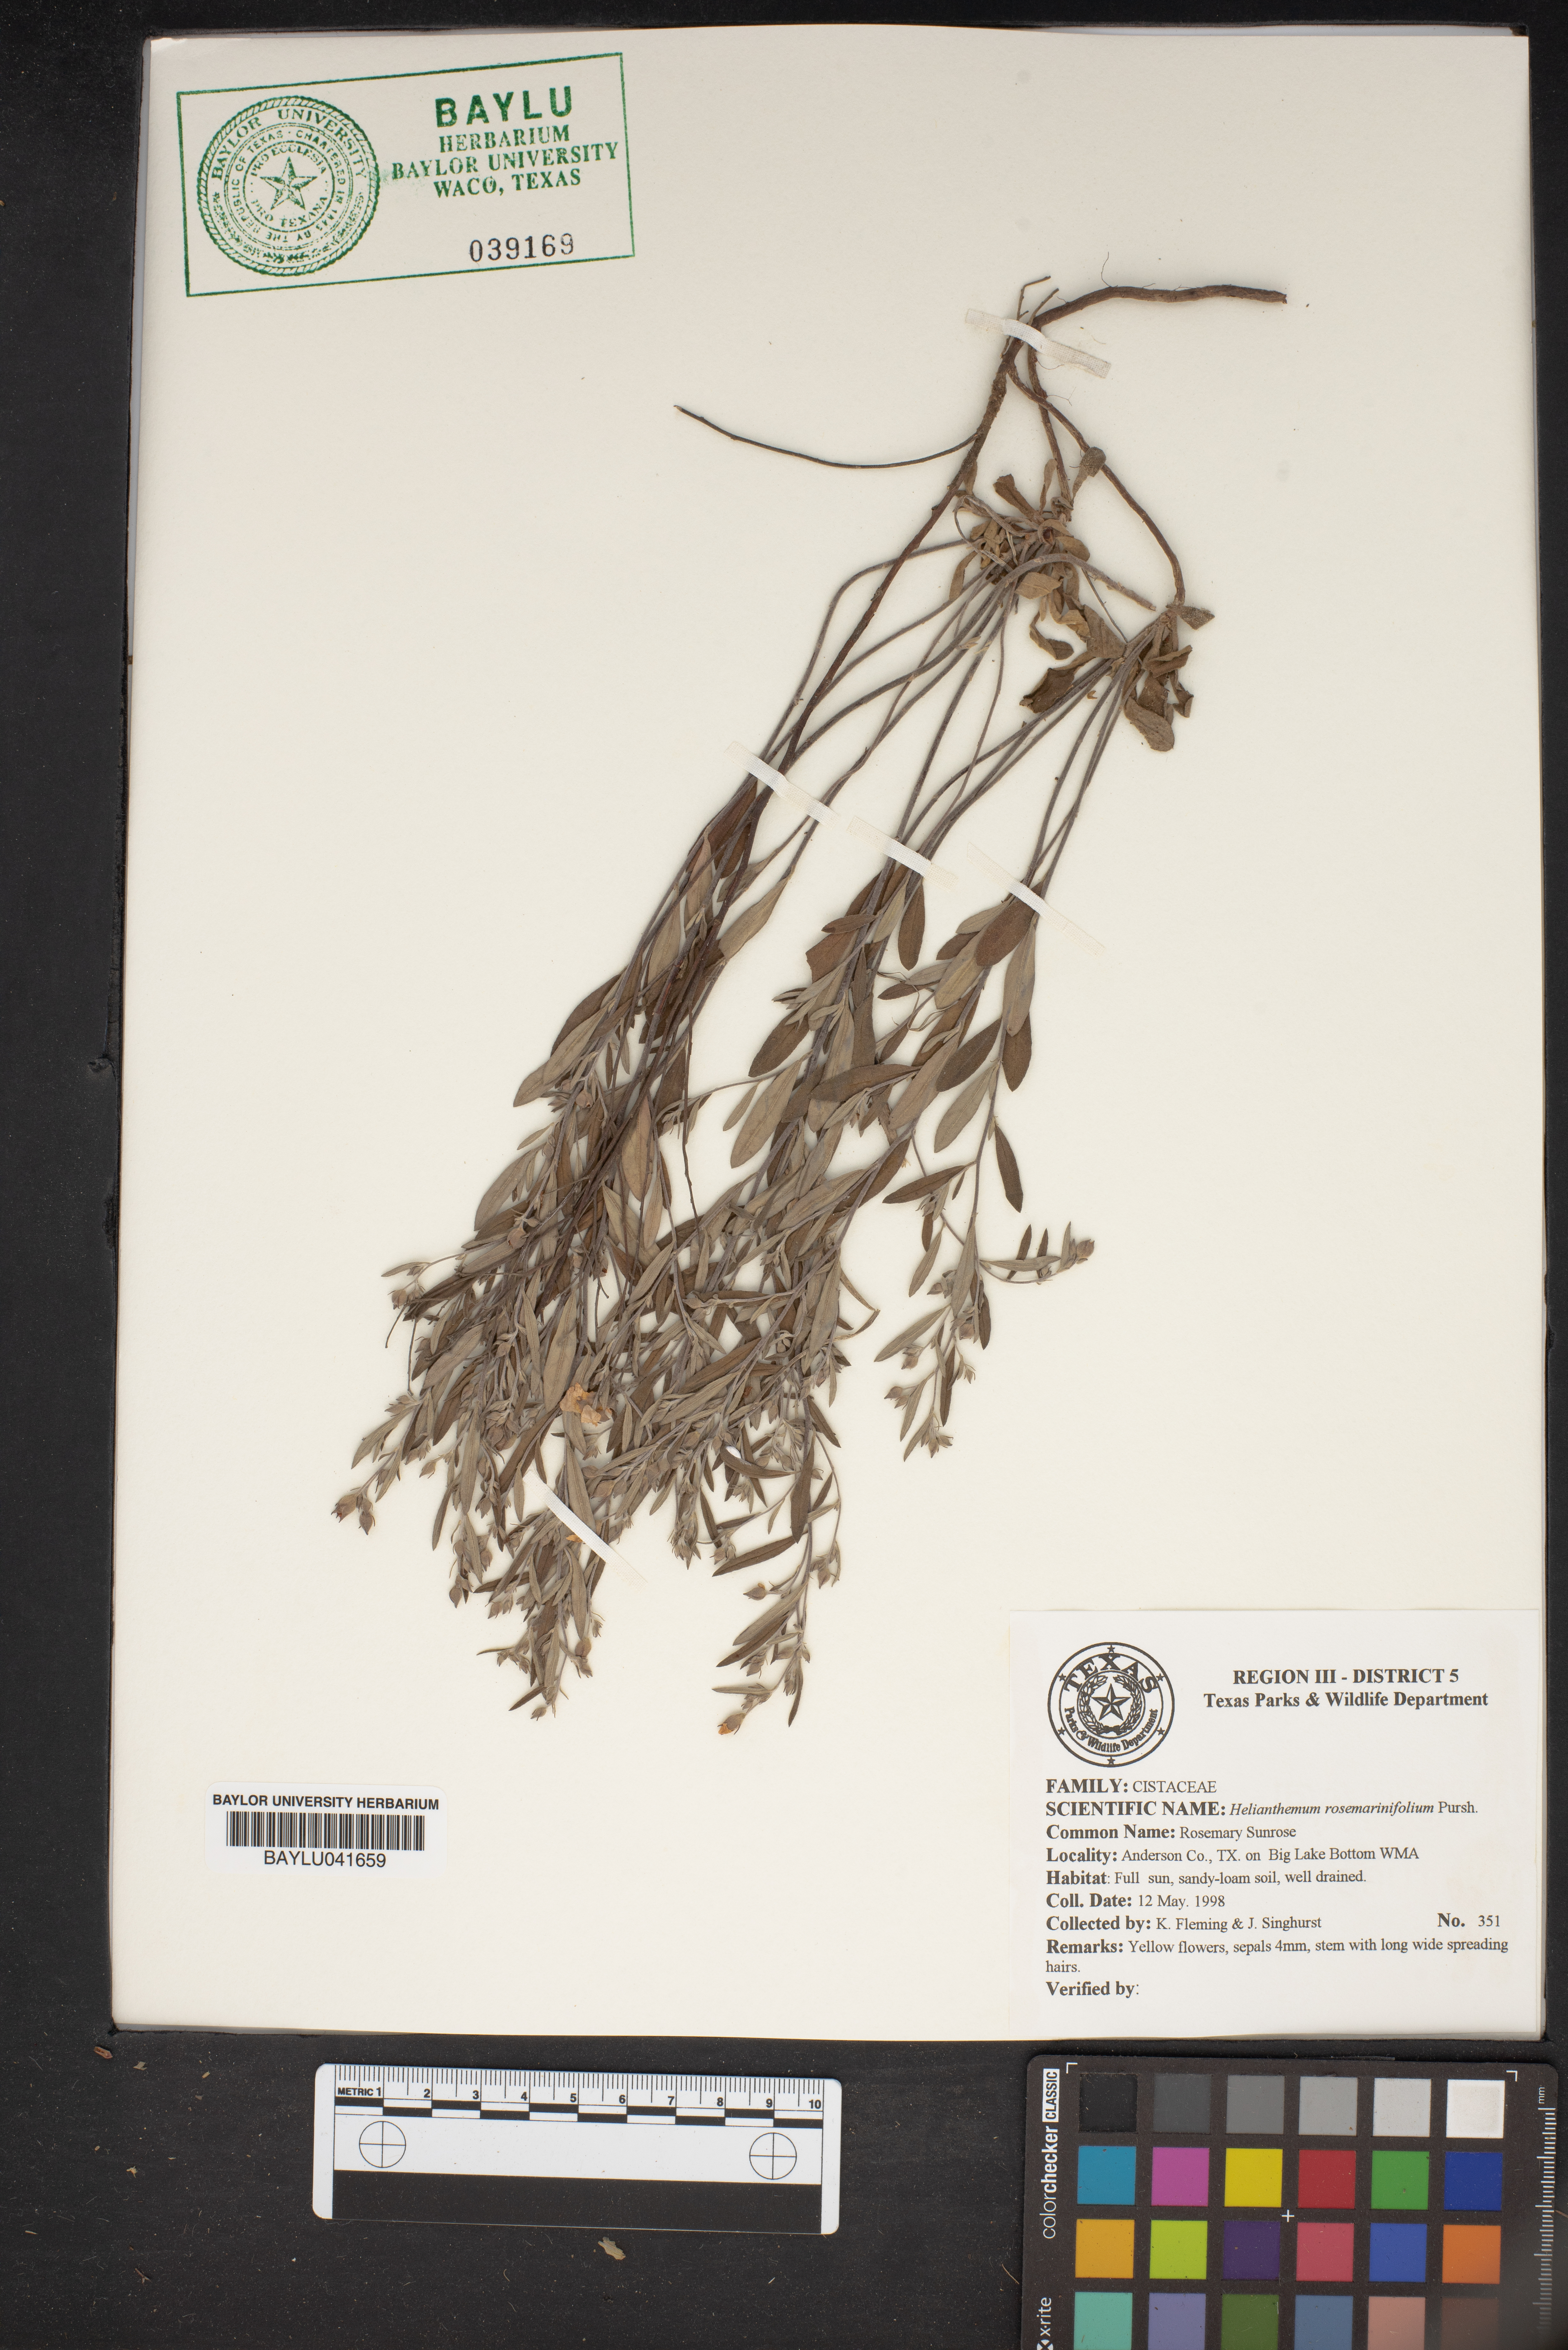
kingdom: Plantae
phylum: Tracheophyta
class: Magnoliopsida
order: Malvales
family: Cistaceae
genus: Crocanthemum
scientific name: Crocanthemum rosmarinifolium
